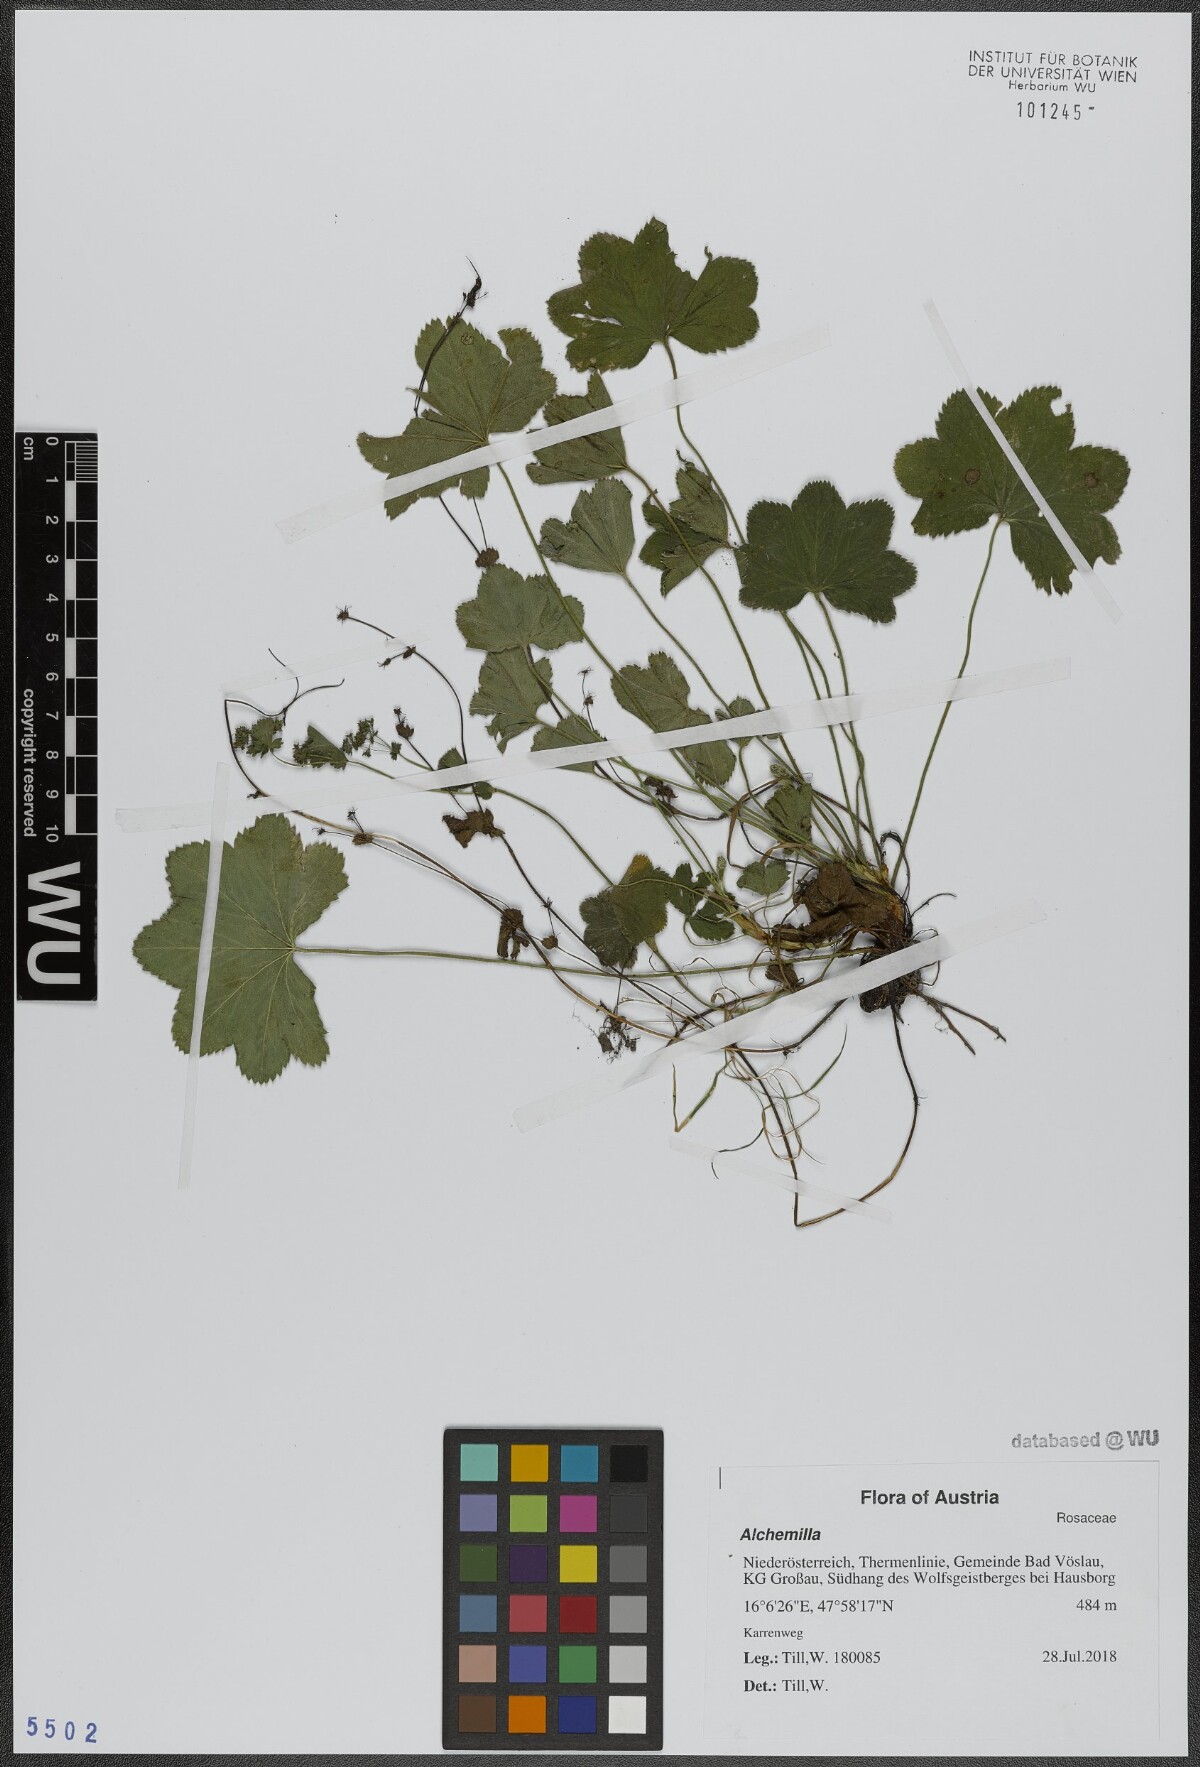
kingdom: Plantae
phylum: Tracheophyta
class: Magnoliopsida
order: Rosales
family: Rosaceae
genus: Alchemilla
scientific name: Alchemilla
